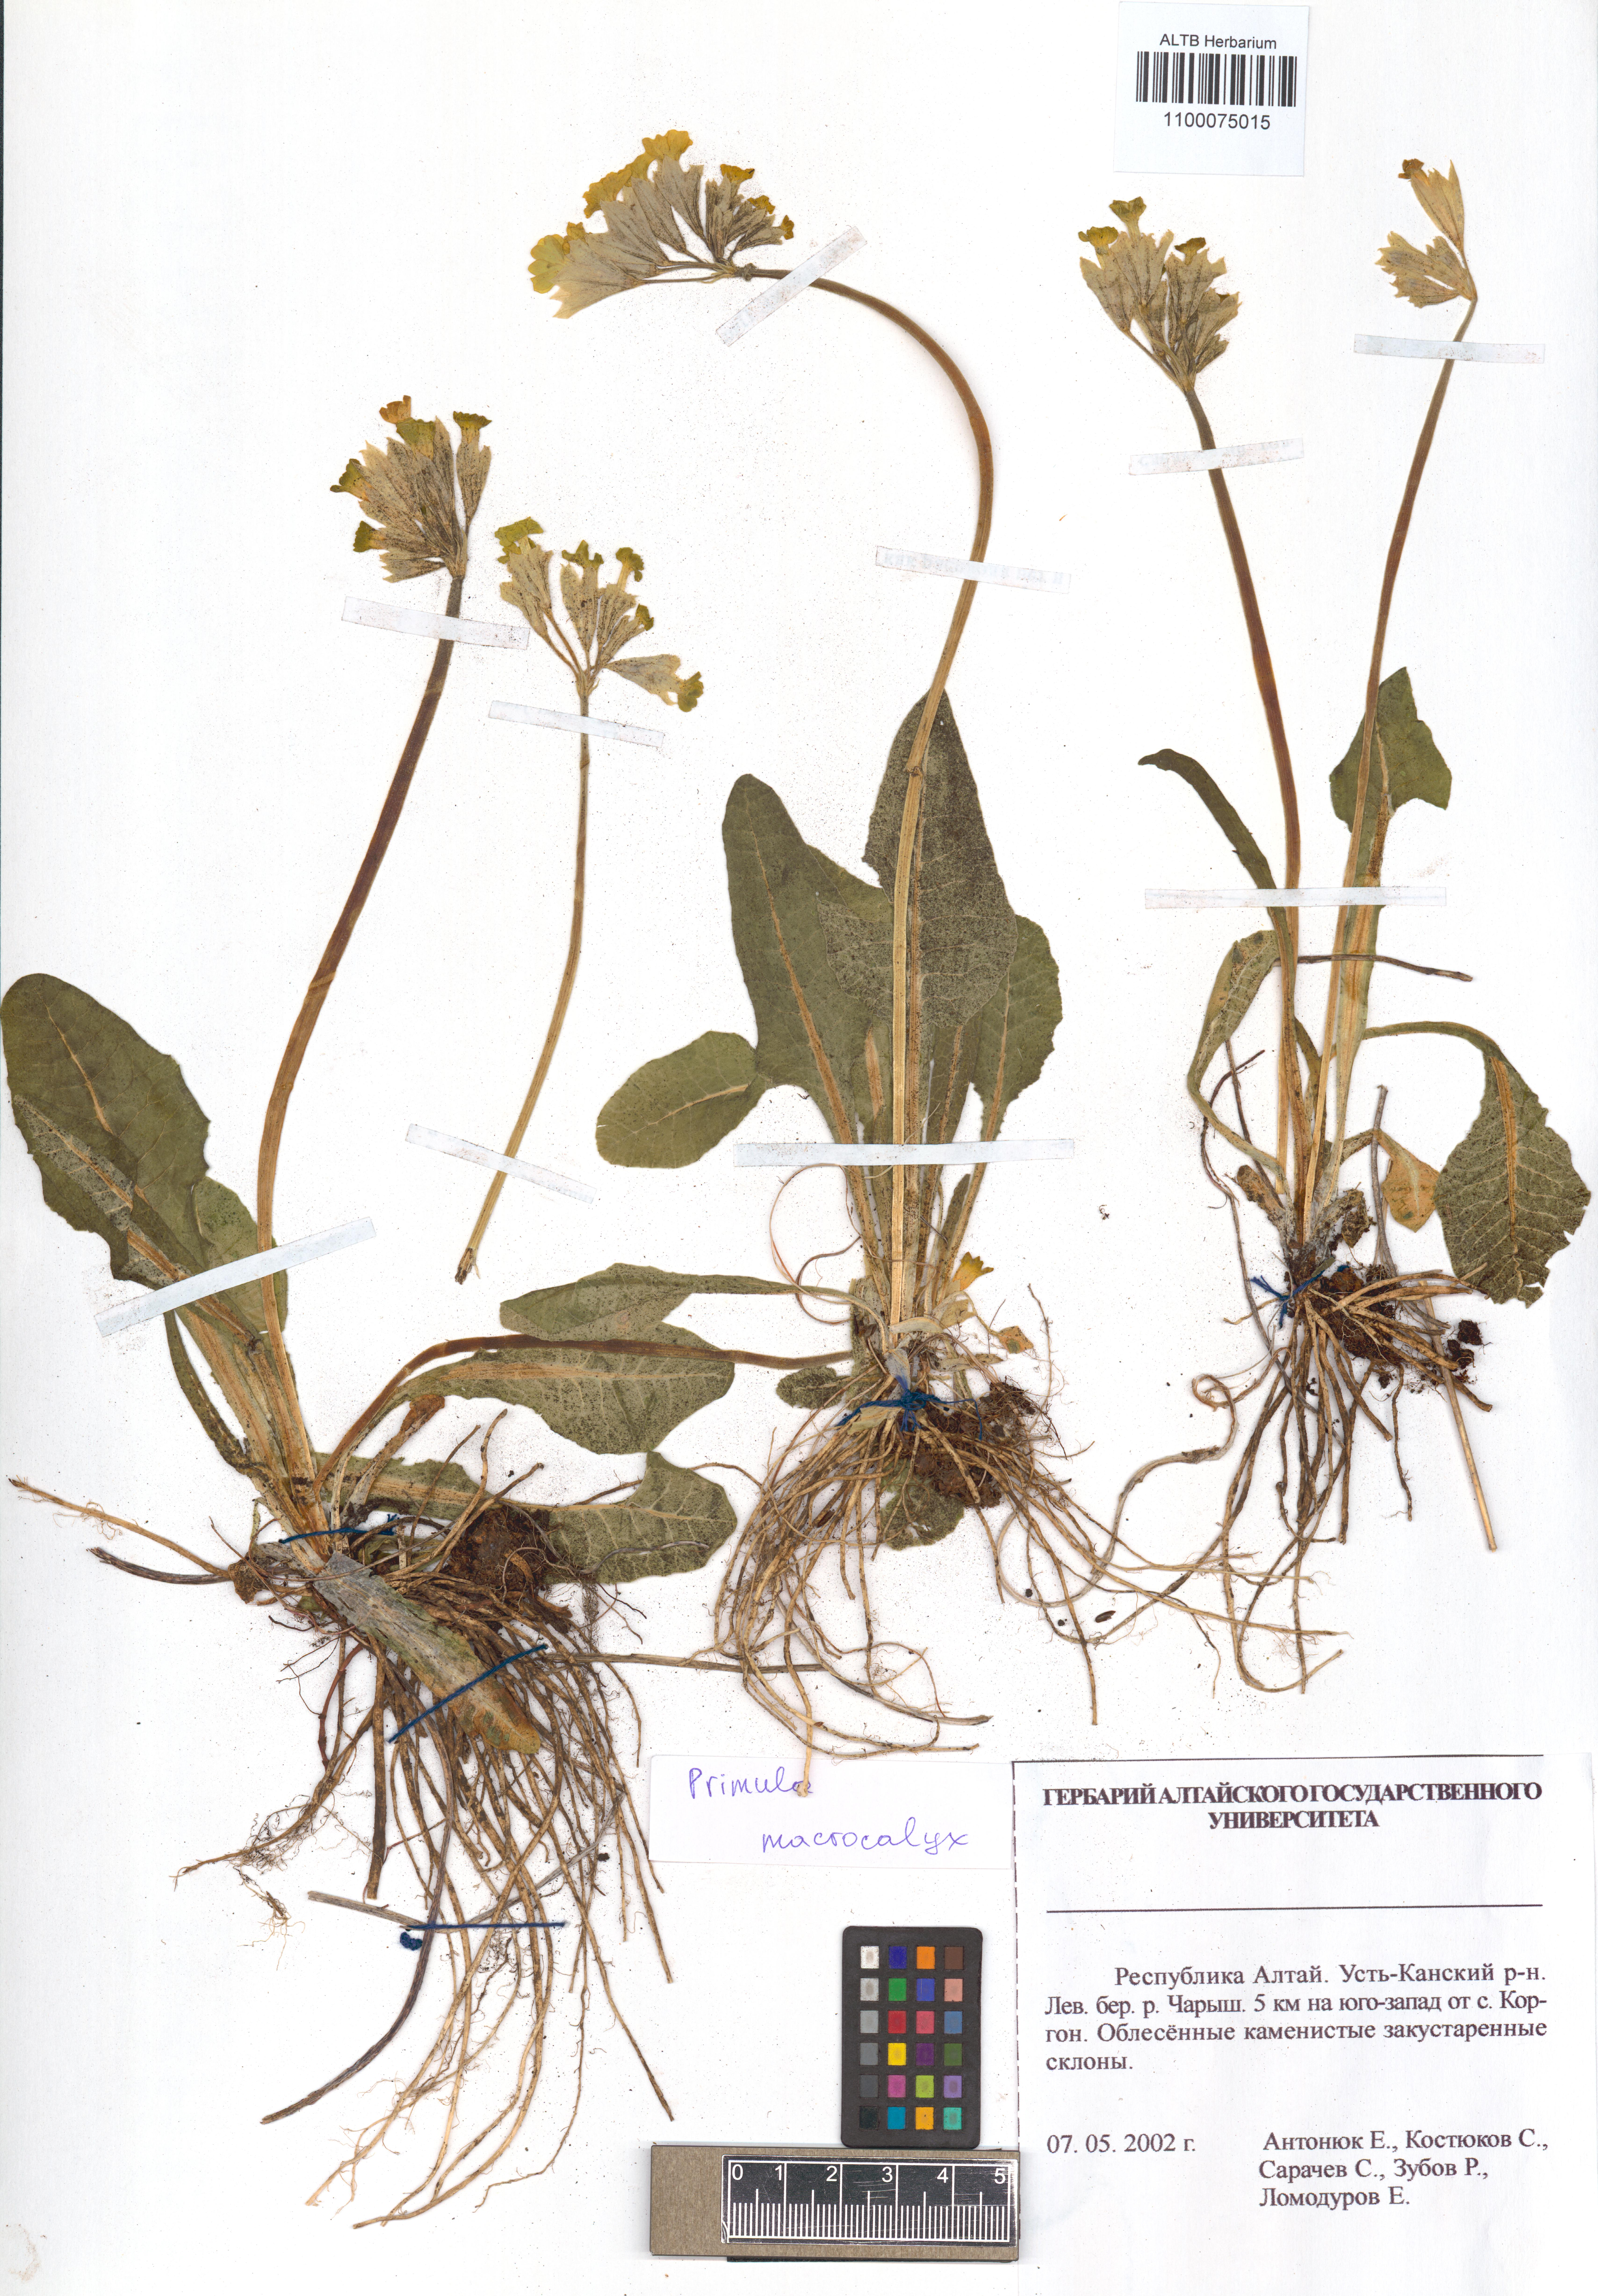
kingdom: Plantae
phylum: Tracheophyta
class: Magnoliopsida
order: Ericales
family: Primulaceae
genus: Primula
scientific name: Primula veris
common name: Cowslip
